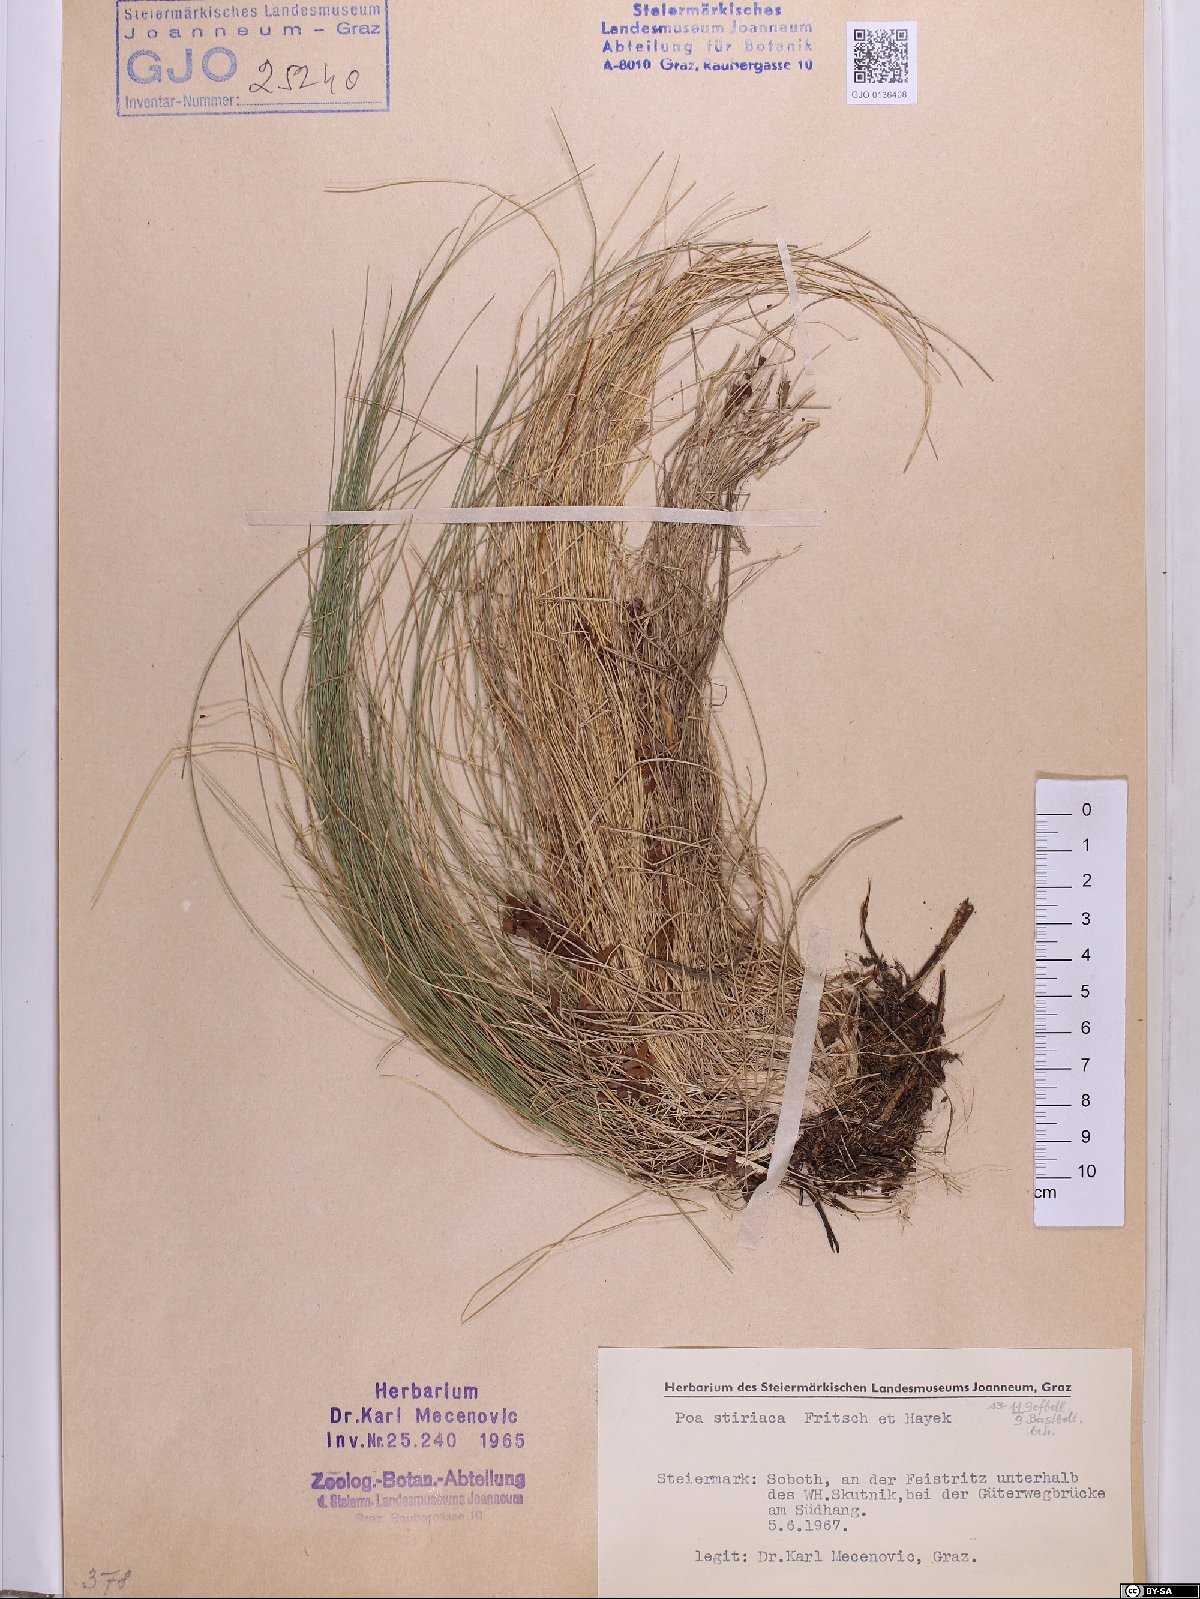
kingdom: Plantae
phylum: Tracheophyta
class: Liliopsida
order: Poales
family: Poaceae
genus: Poa
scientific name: Poa stiriaca
